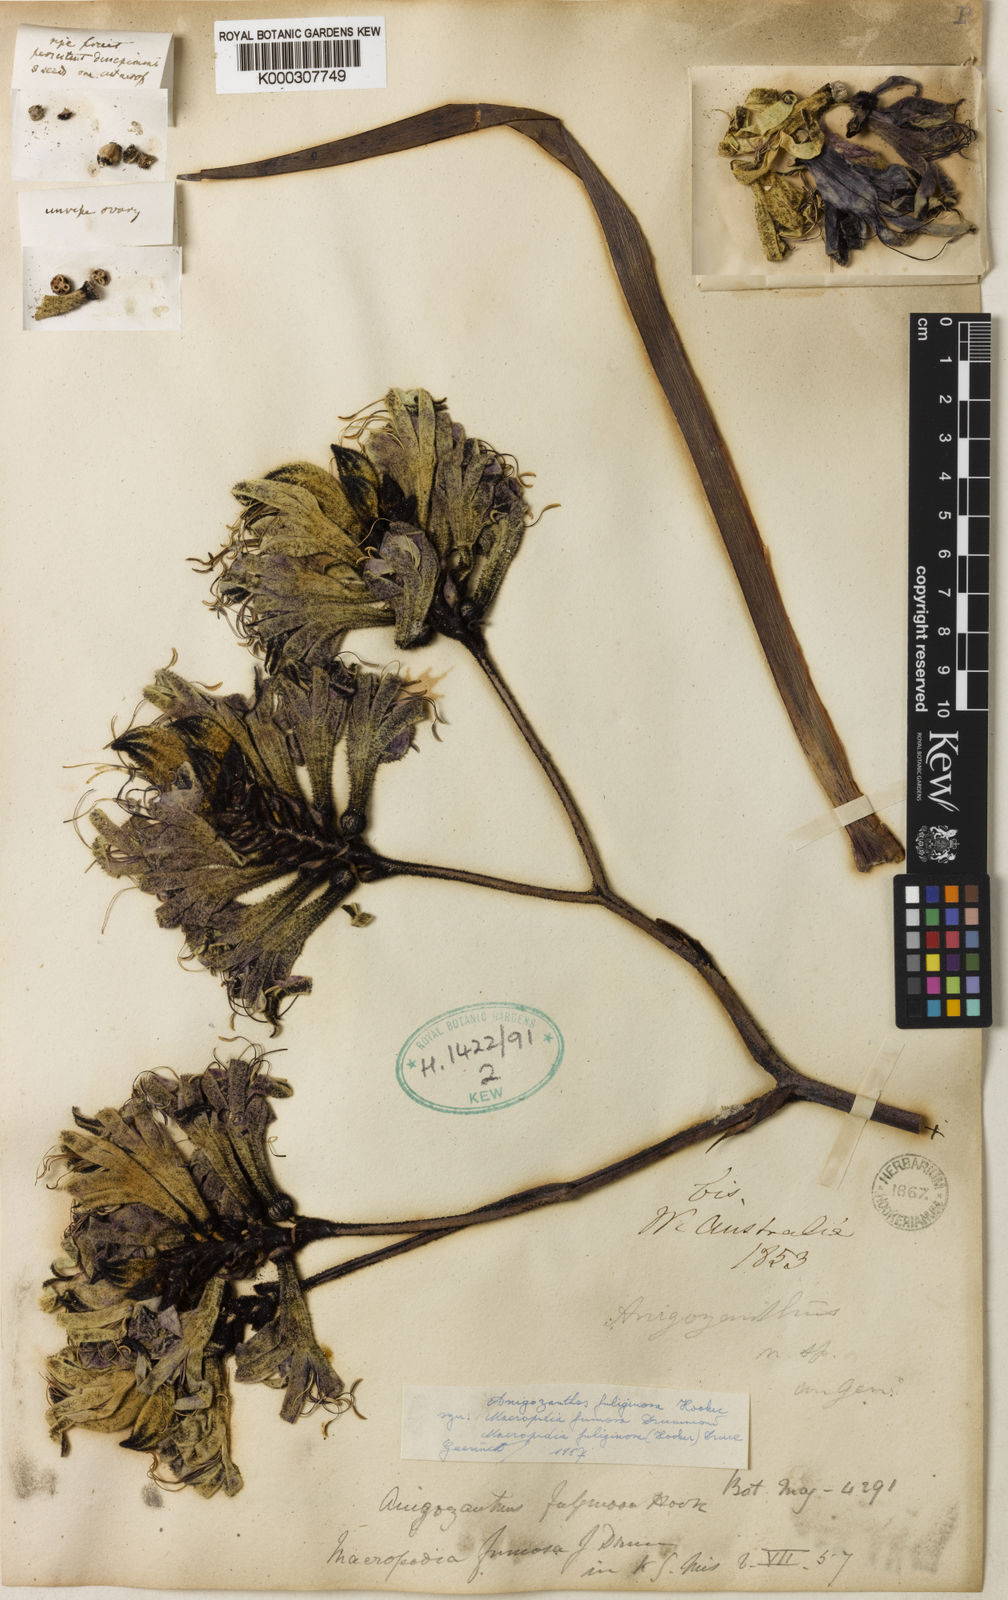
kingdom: Plantae
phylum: Tracheophyta
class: Liliopsida
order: Commelinales
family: Haemodoraceae
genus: Macropidia
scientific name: Macropidia fuliginosa
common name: Black kangaroo-paw
